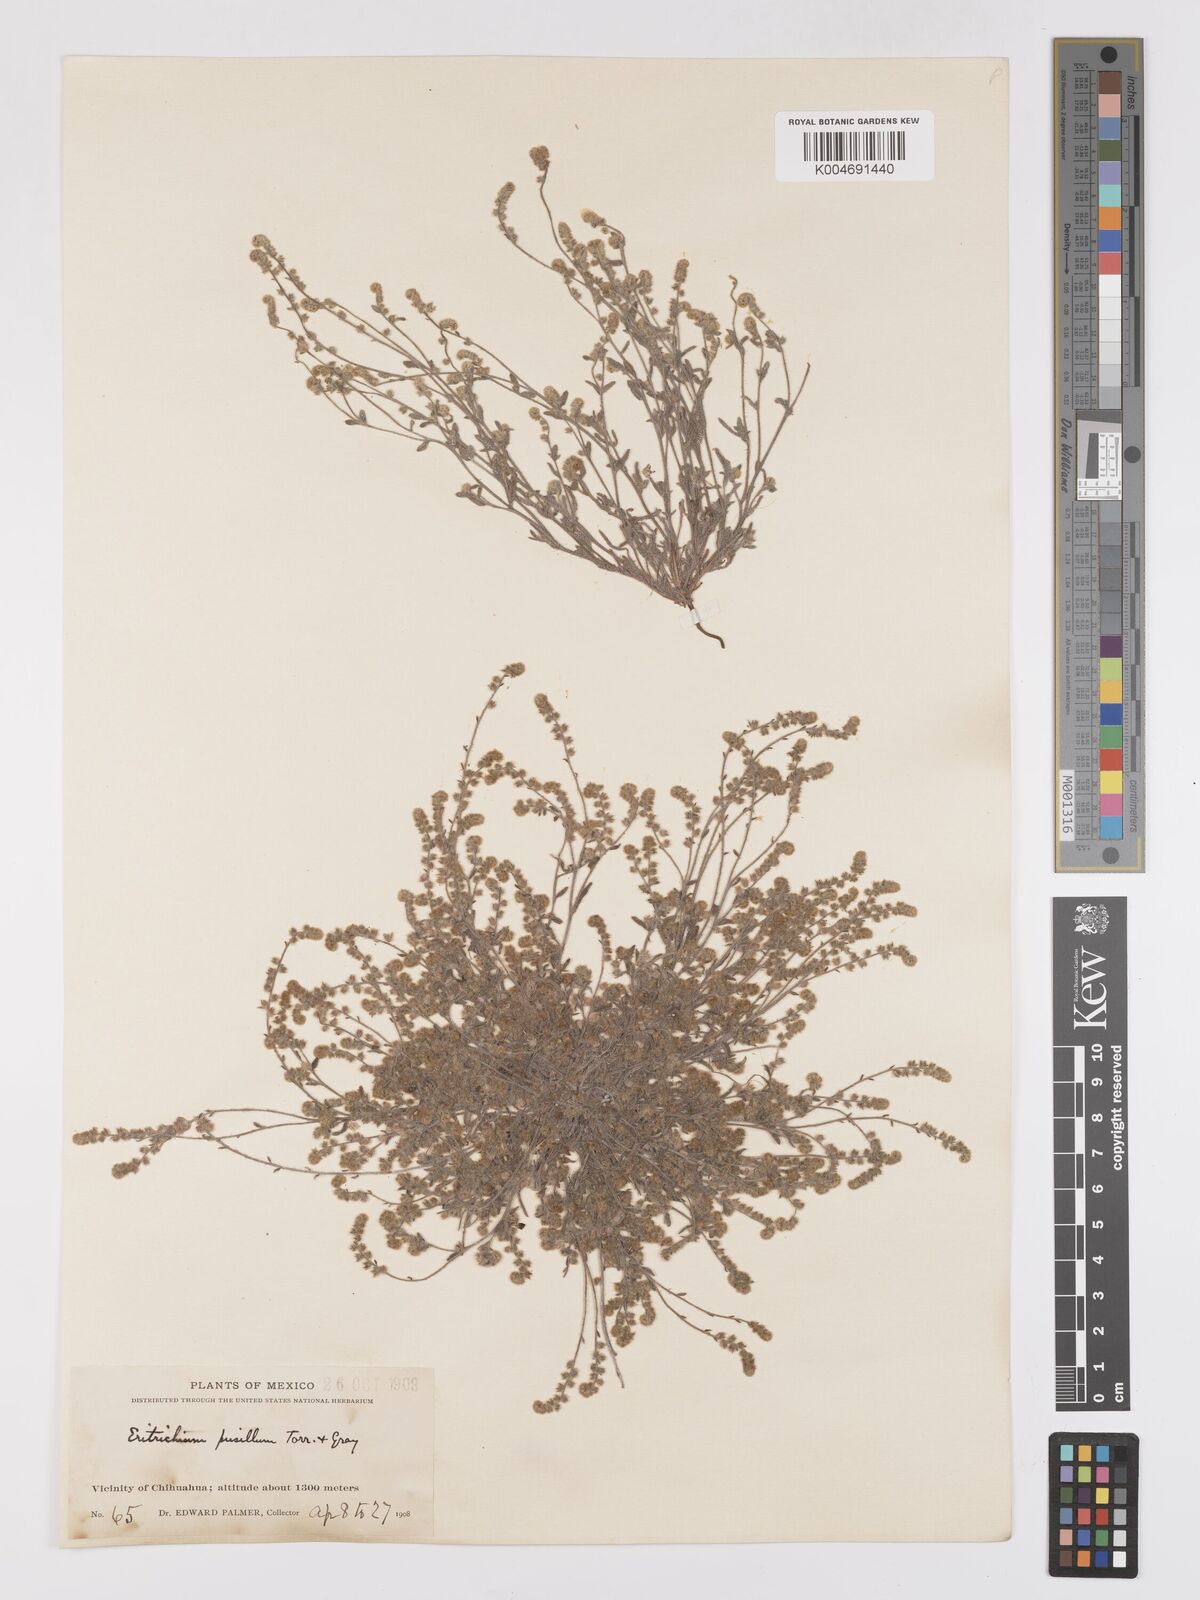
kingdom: Plantae
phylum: Tracheophyta
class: Magnoliopsida
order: Boraginales
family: Boraginaceae
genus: Johnstonella
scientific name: Johnstonella pusilla
